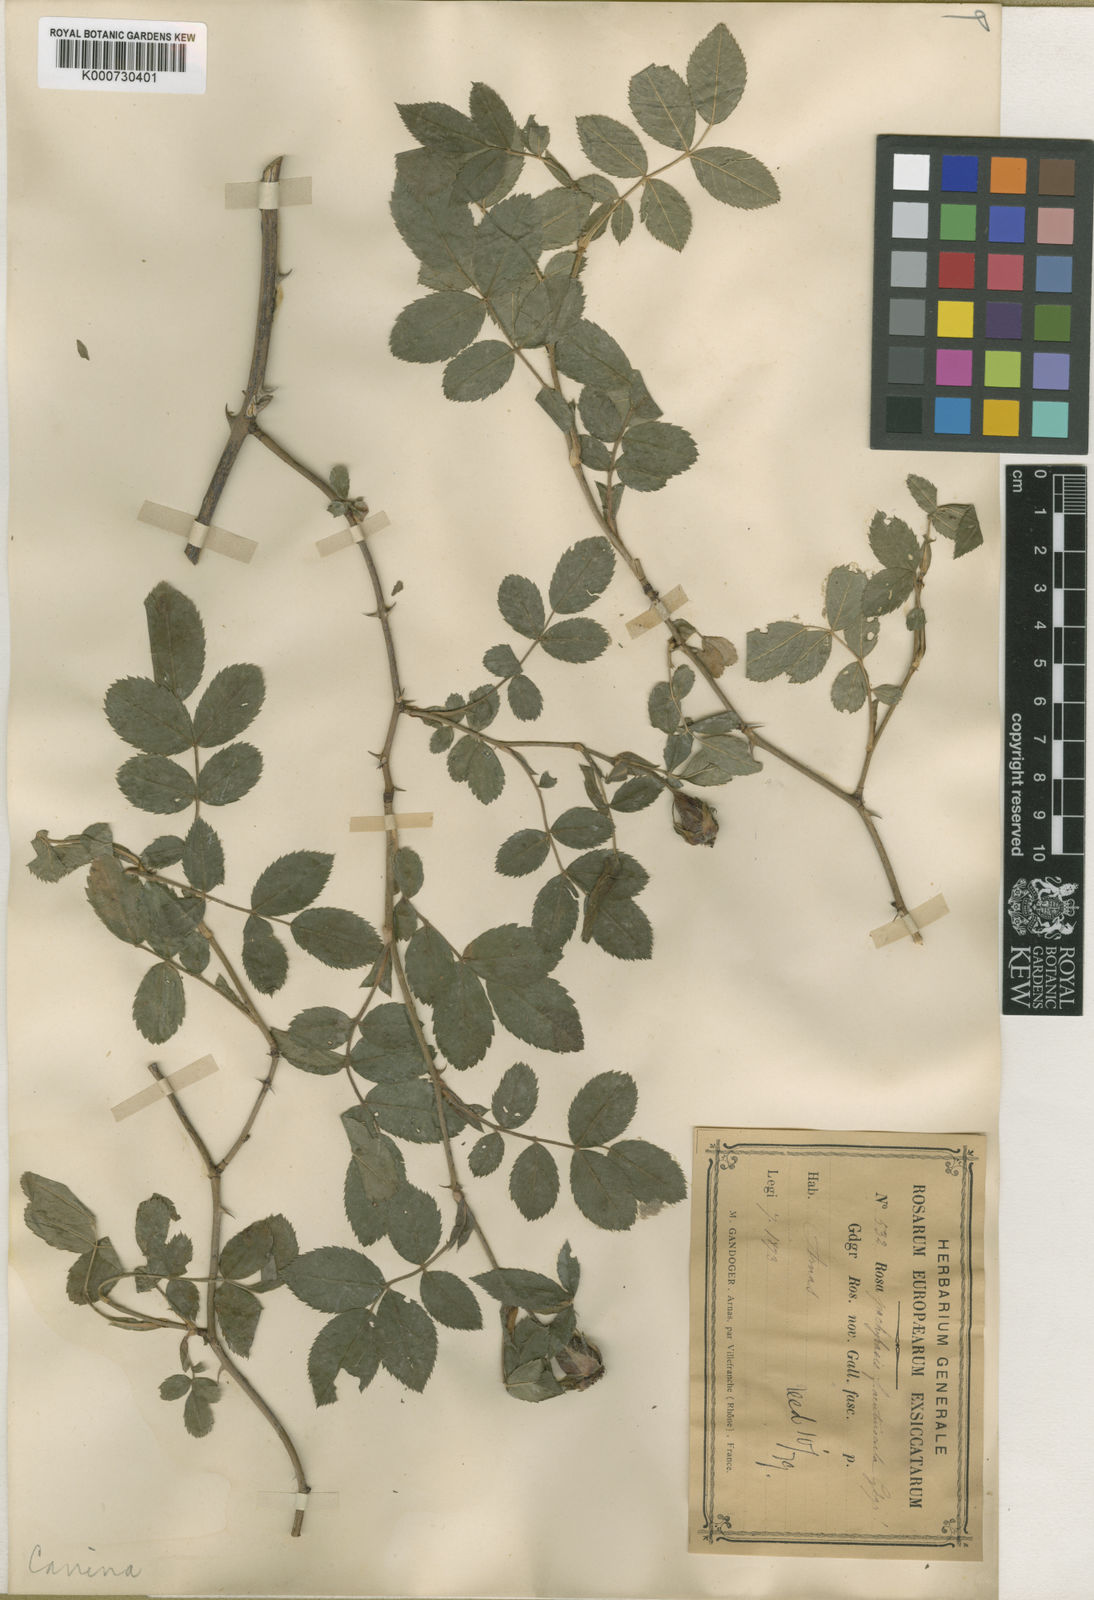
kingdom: Plantae
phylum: Tracheophyta
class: Magnoliopsida
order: Rosales
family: Rosaceae
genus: Rosa
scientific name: Rosa canina
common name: Dog rose
